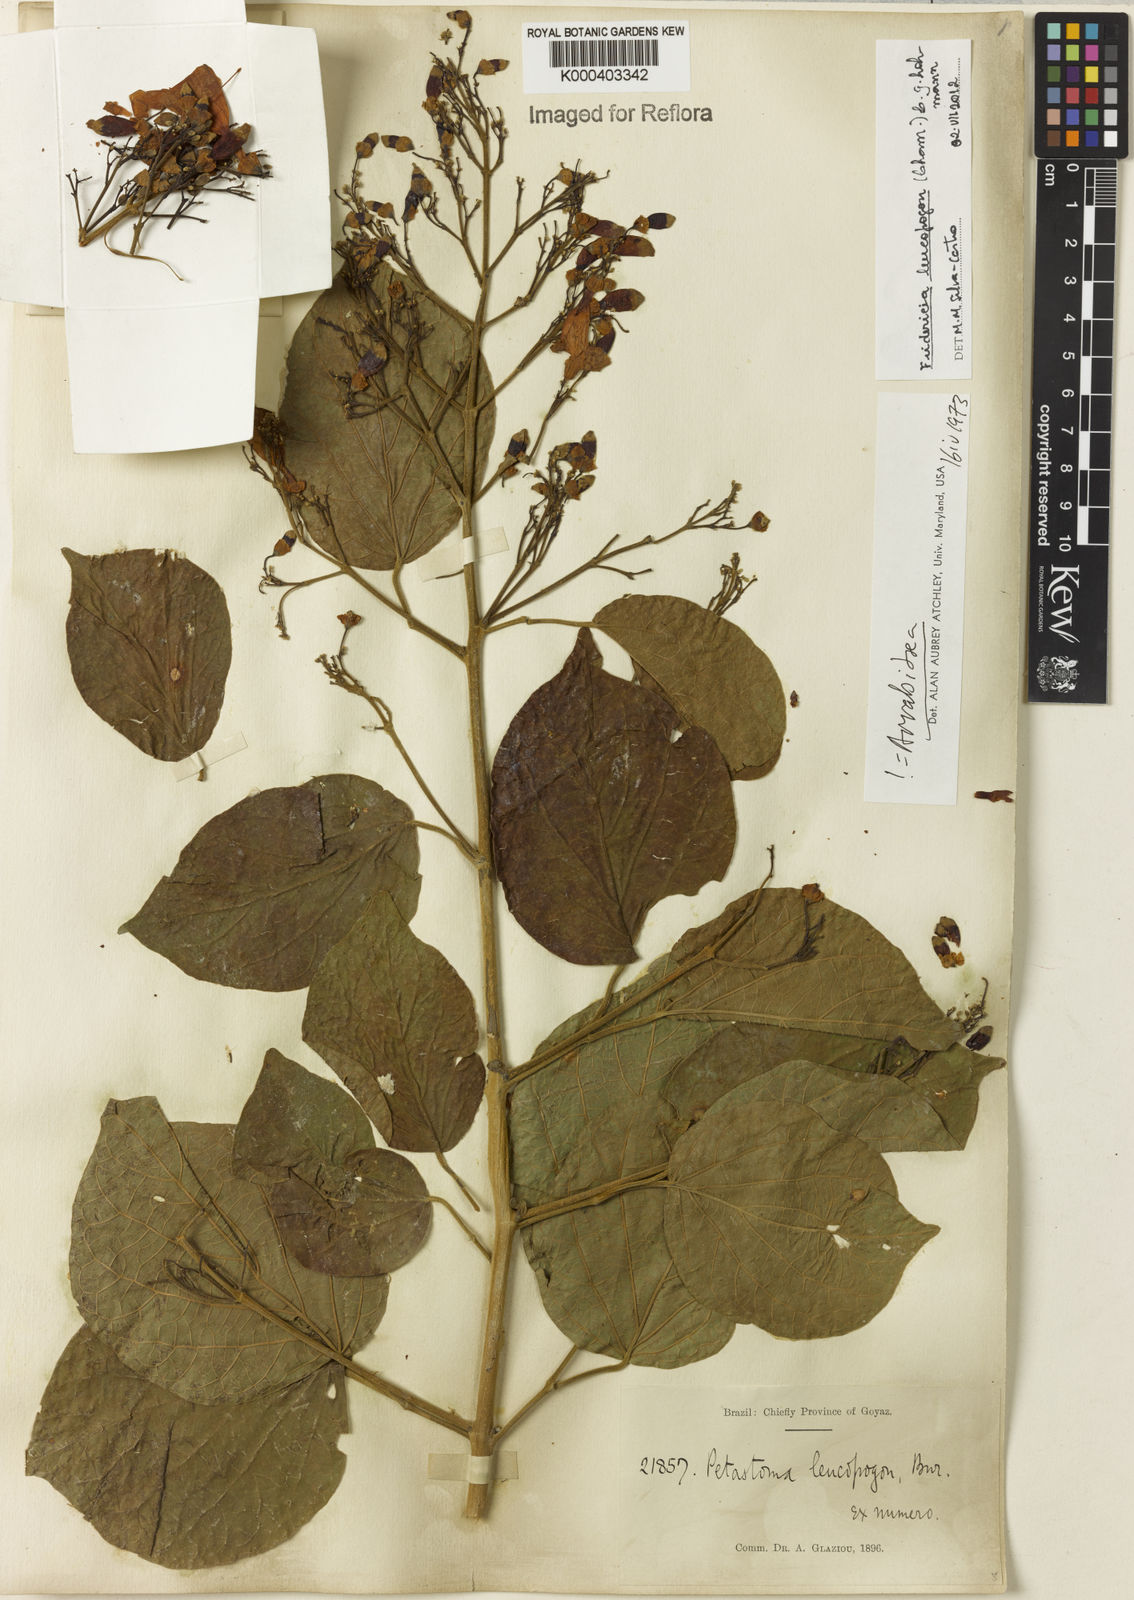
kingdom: Plantae
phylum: Tracheophyta
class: Magnoliopsida
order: Lamiales
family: Bignoniaceae
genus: Fridericia
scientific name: Fridericia leucopogon
